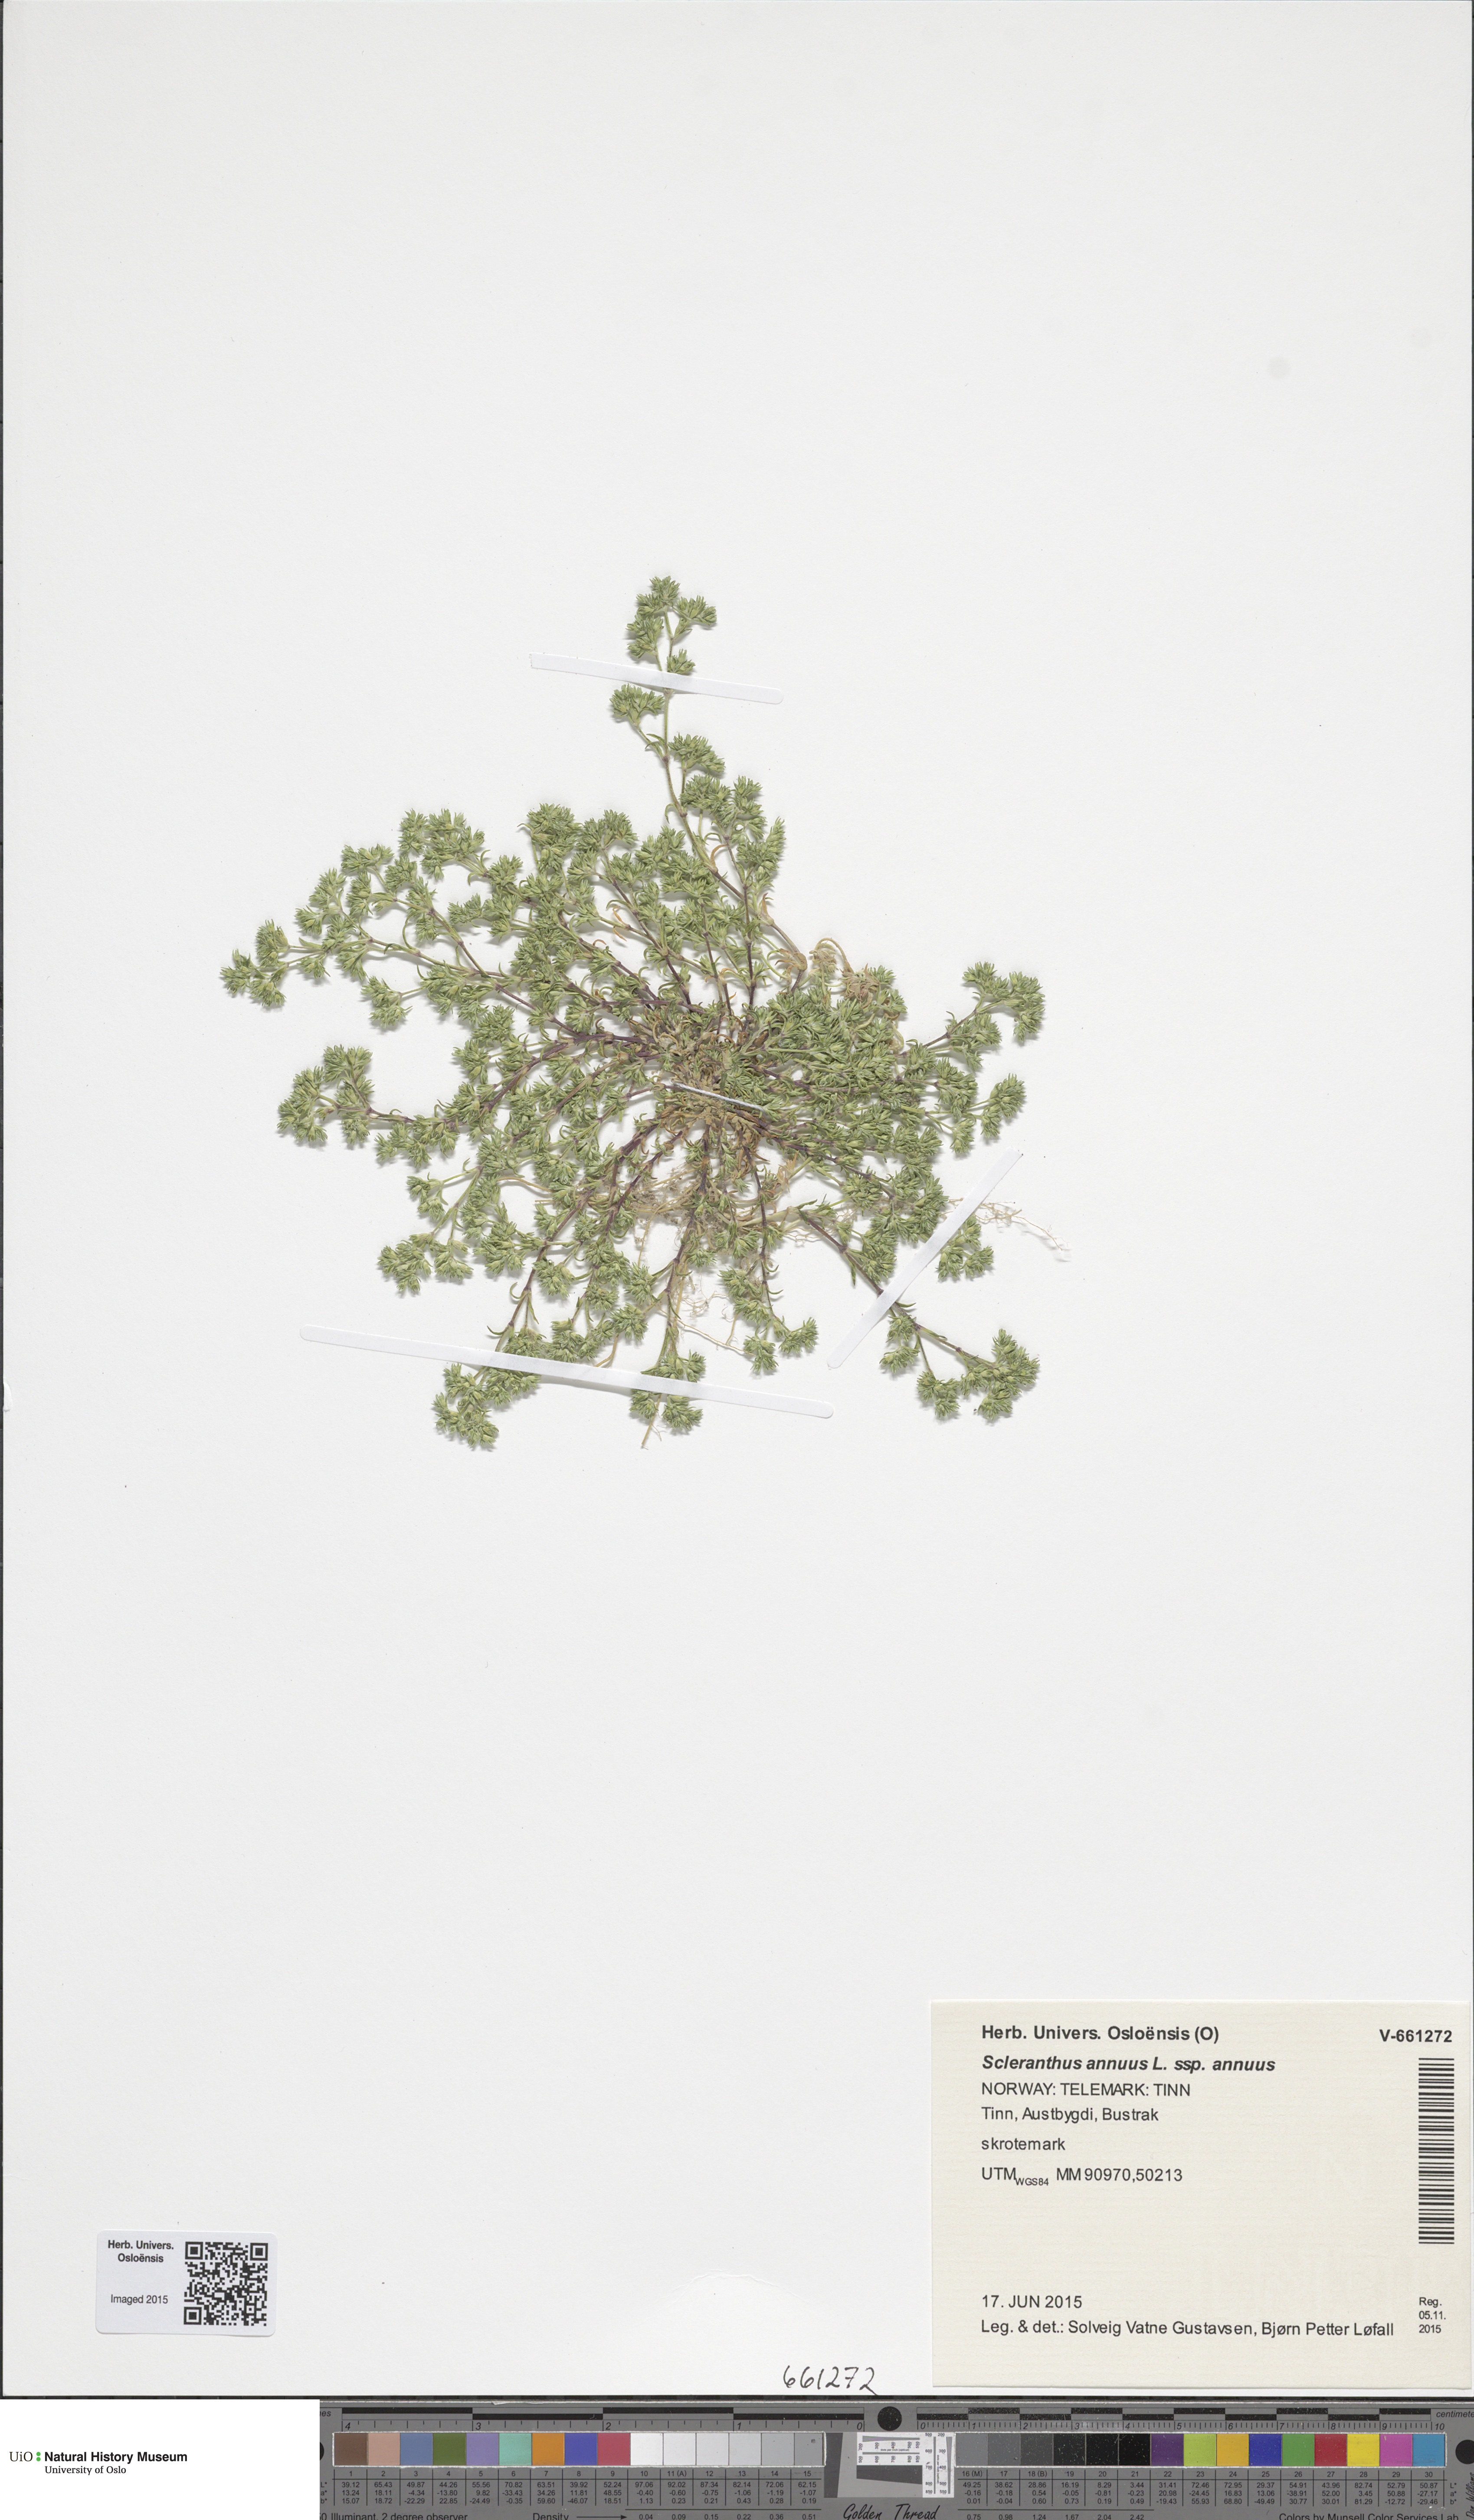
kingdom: Plantae
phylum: Tracheophyta
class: Magnoliopsida
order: Caryophyllales
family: Caryophyllaceae
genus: Scleranthus
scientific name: Scleranthus annuus
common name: Annual knawel
